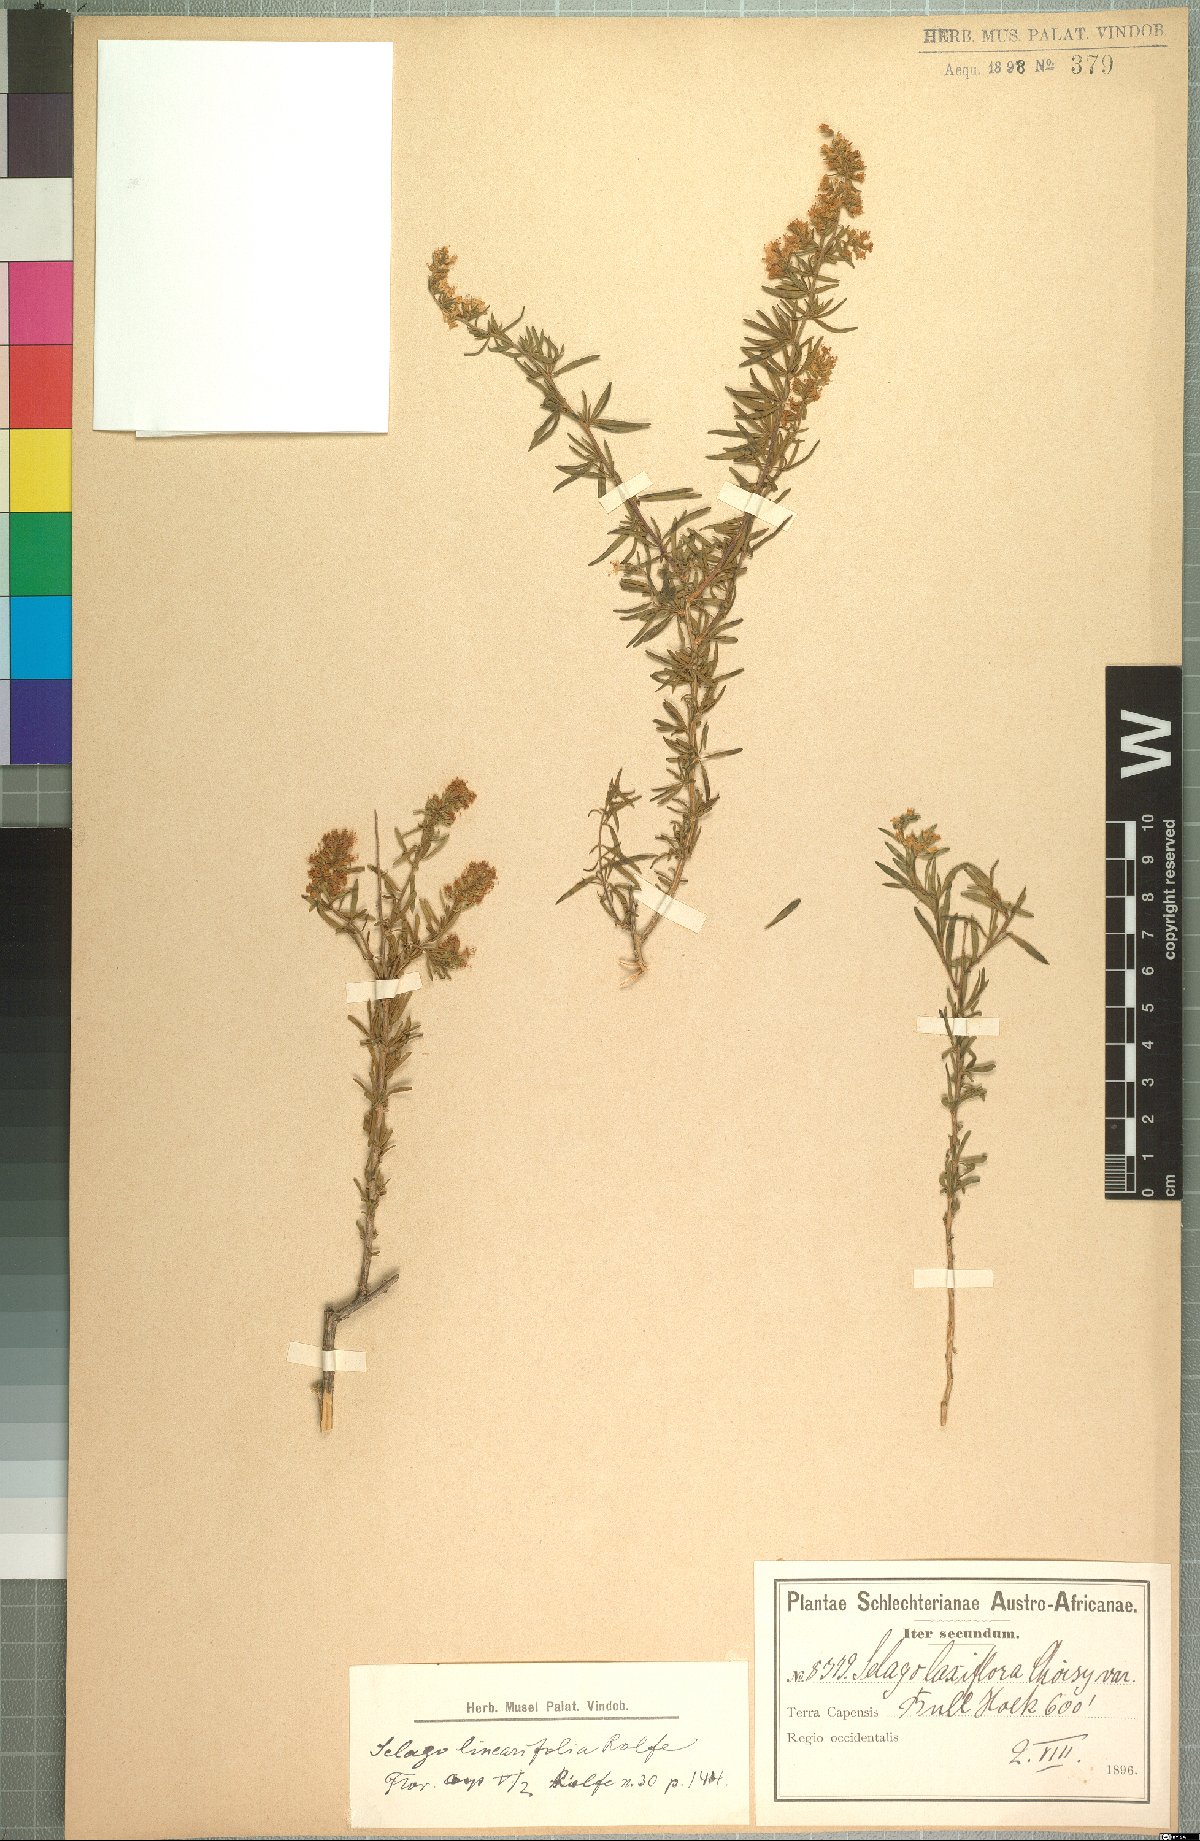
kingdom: Plantae
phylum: Tracheophyta
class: Magnoliopsida
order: Lamiales
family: Scrophulariaceae
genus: Selago
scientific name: Selago linearifolia
